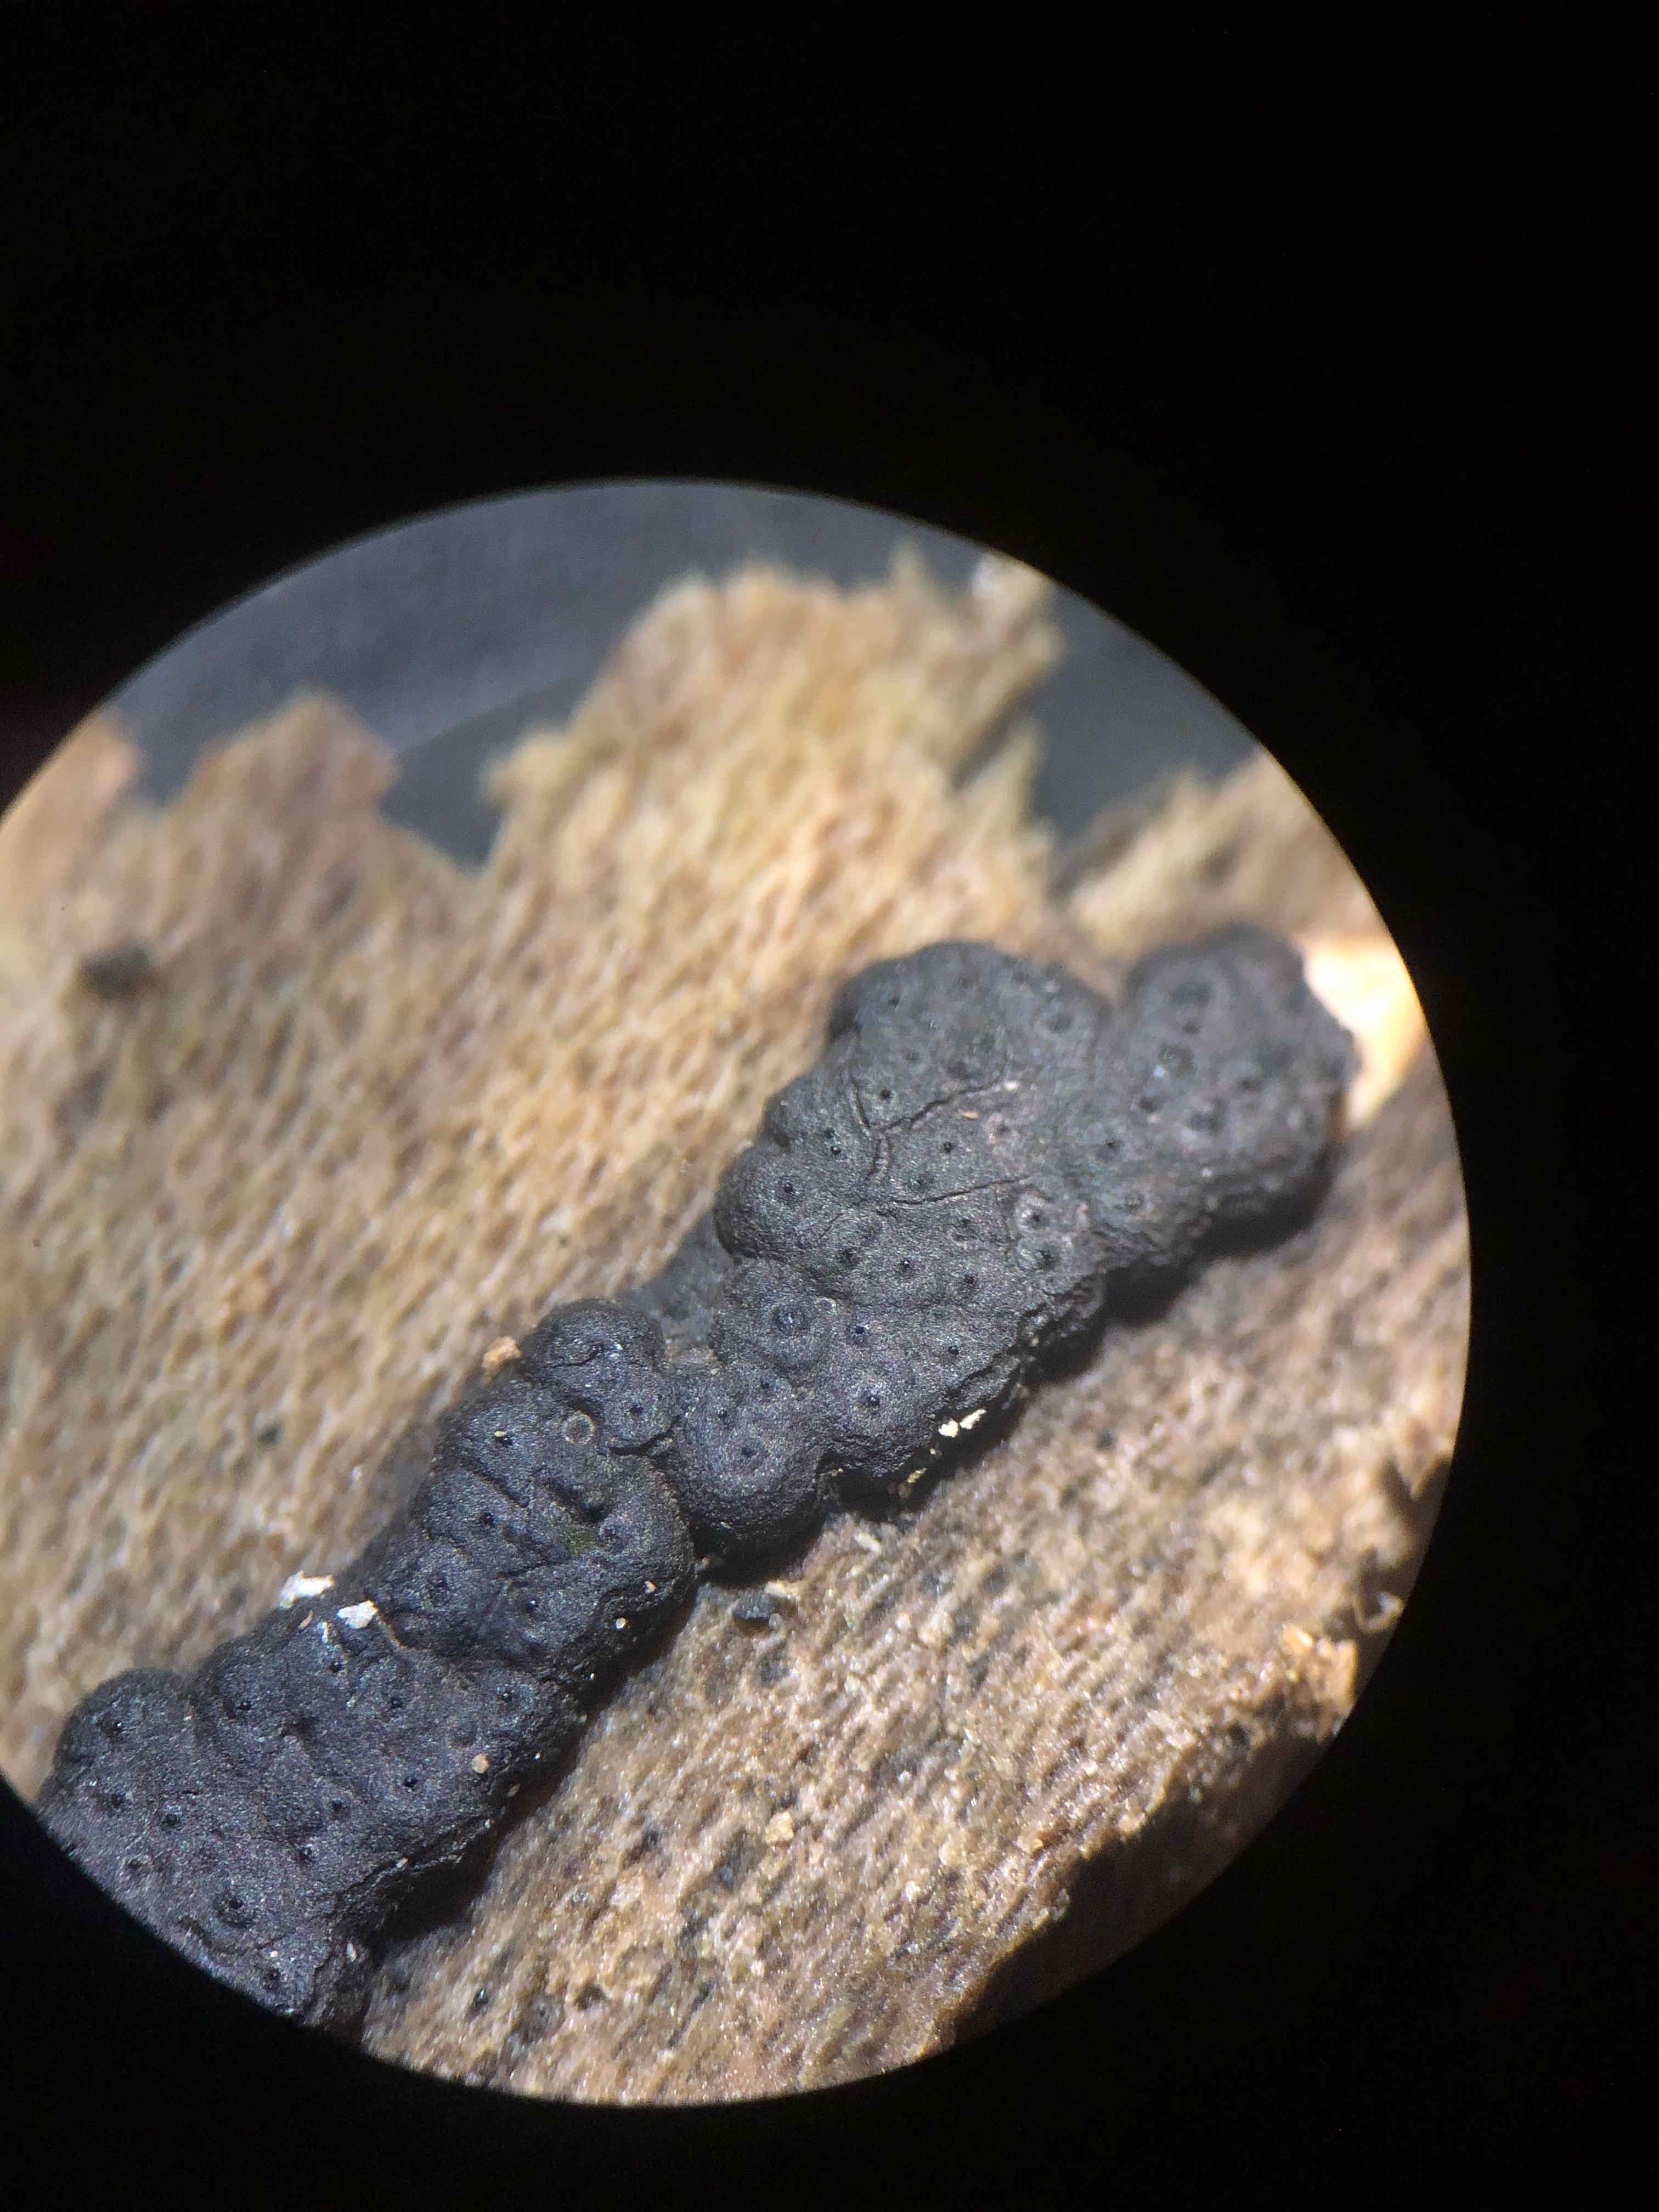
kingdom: Fungi
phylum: Ascomycota
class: Sordariomycetes
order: Xylariales
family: Xylariaceae
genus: Nemania
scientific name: Nemania serpens
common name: almindelig kuldyne
